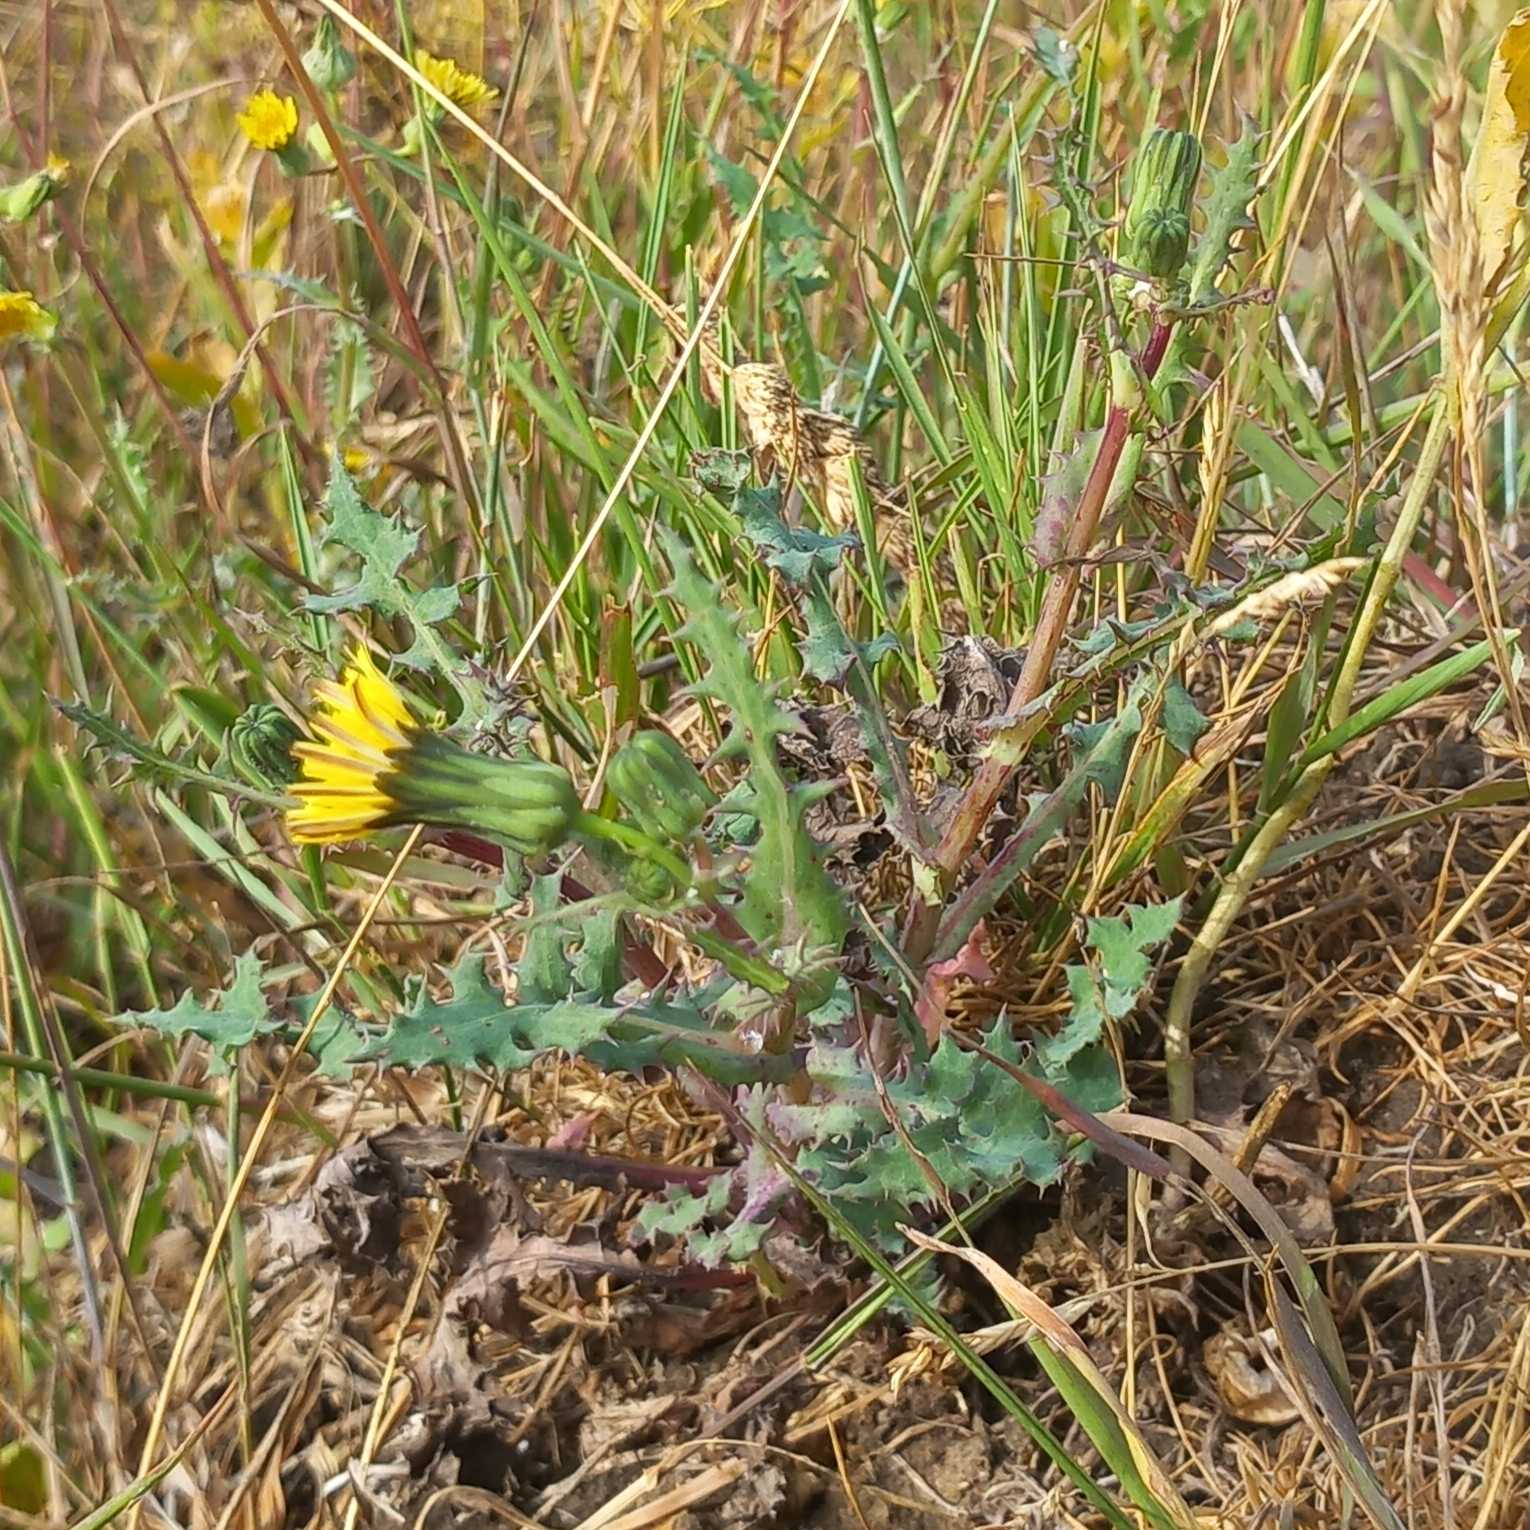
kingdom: Plantae
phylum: Tracheophyta
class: Magnoliopsida
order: Asterales
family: Asteraceae
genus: Sonchus
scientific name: Sonchus oleraceus
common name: Almindelig svinemælk
